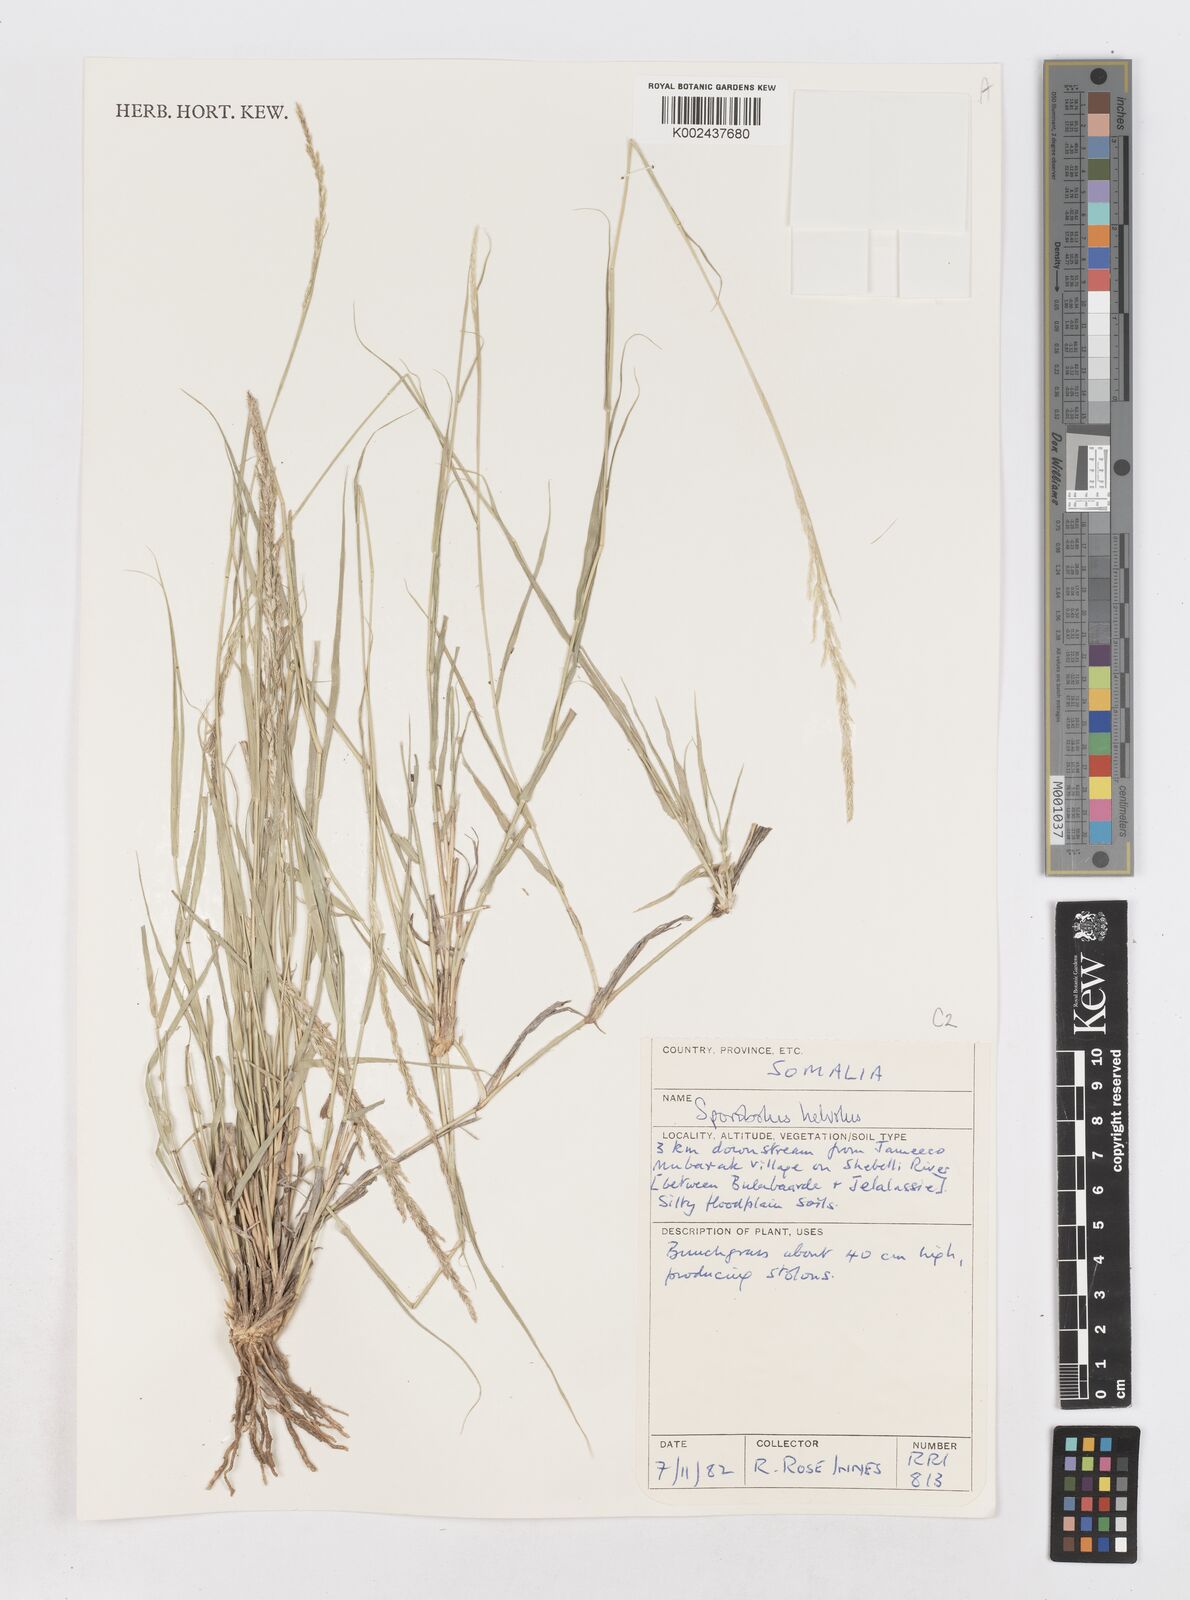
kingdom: Plantae
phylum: Tracheophyta
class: Liliopsida
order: Poales
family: Poaceae
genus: Sporobolus
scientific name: Sporobolus helvolus
